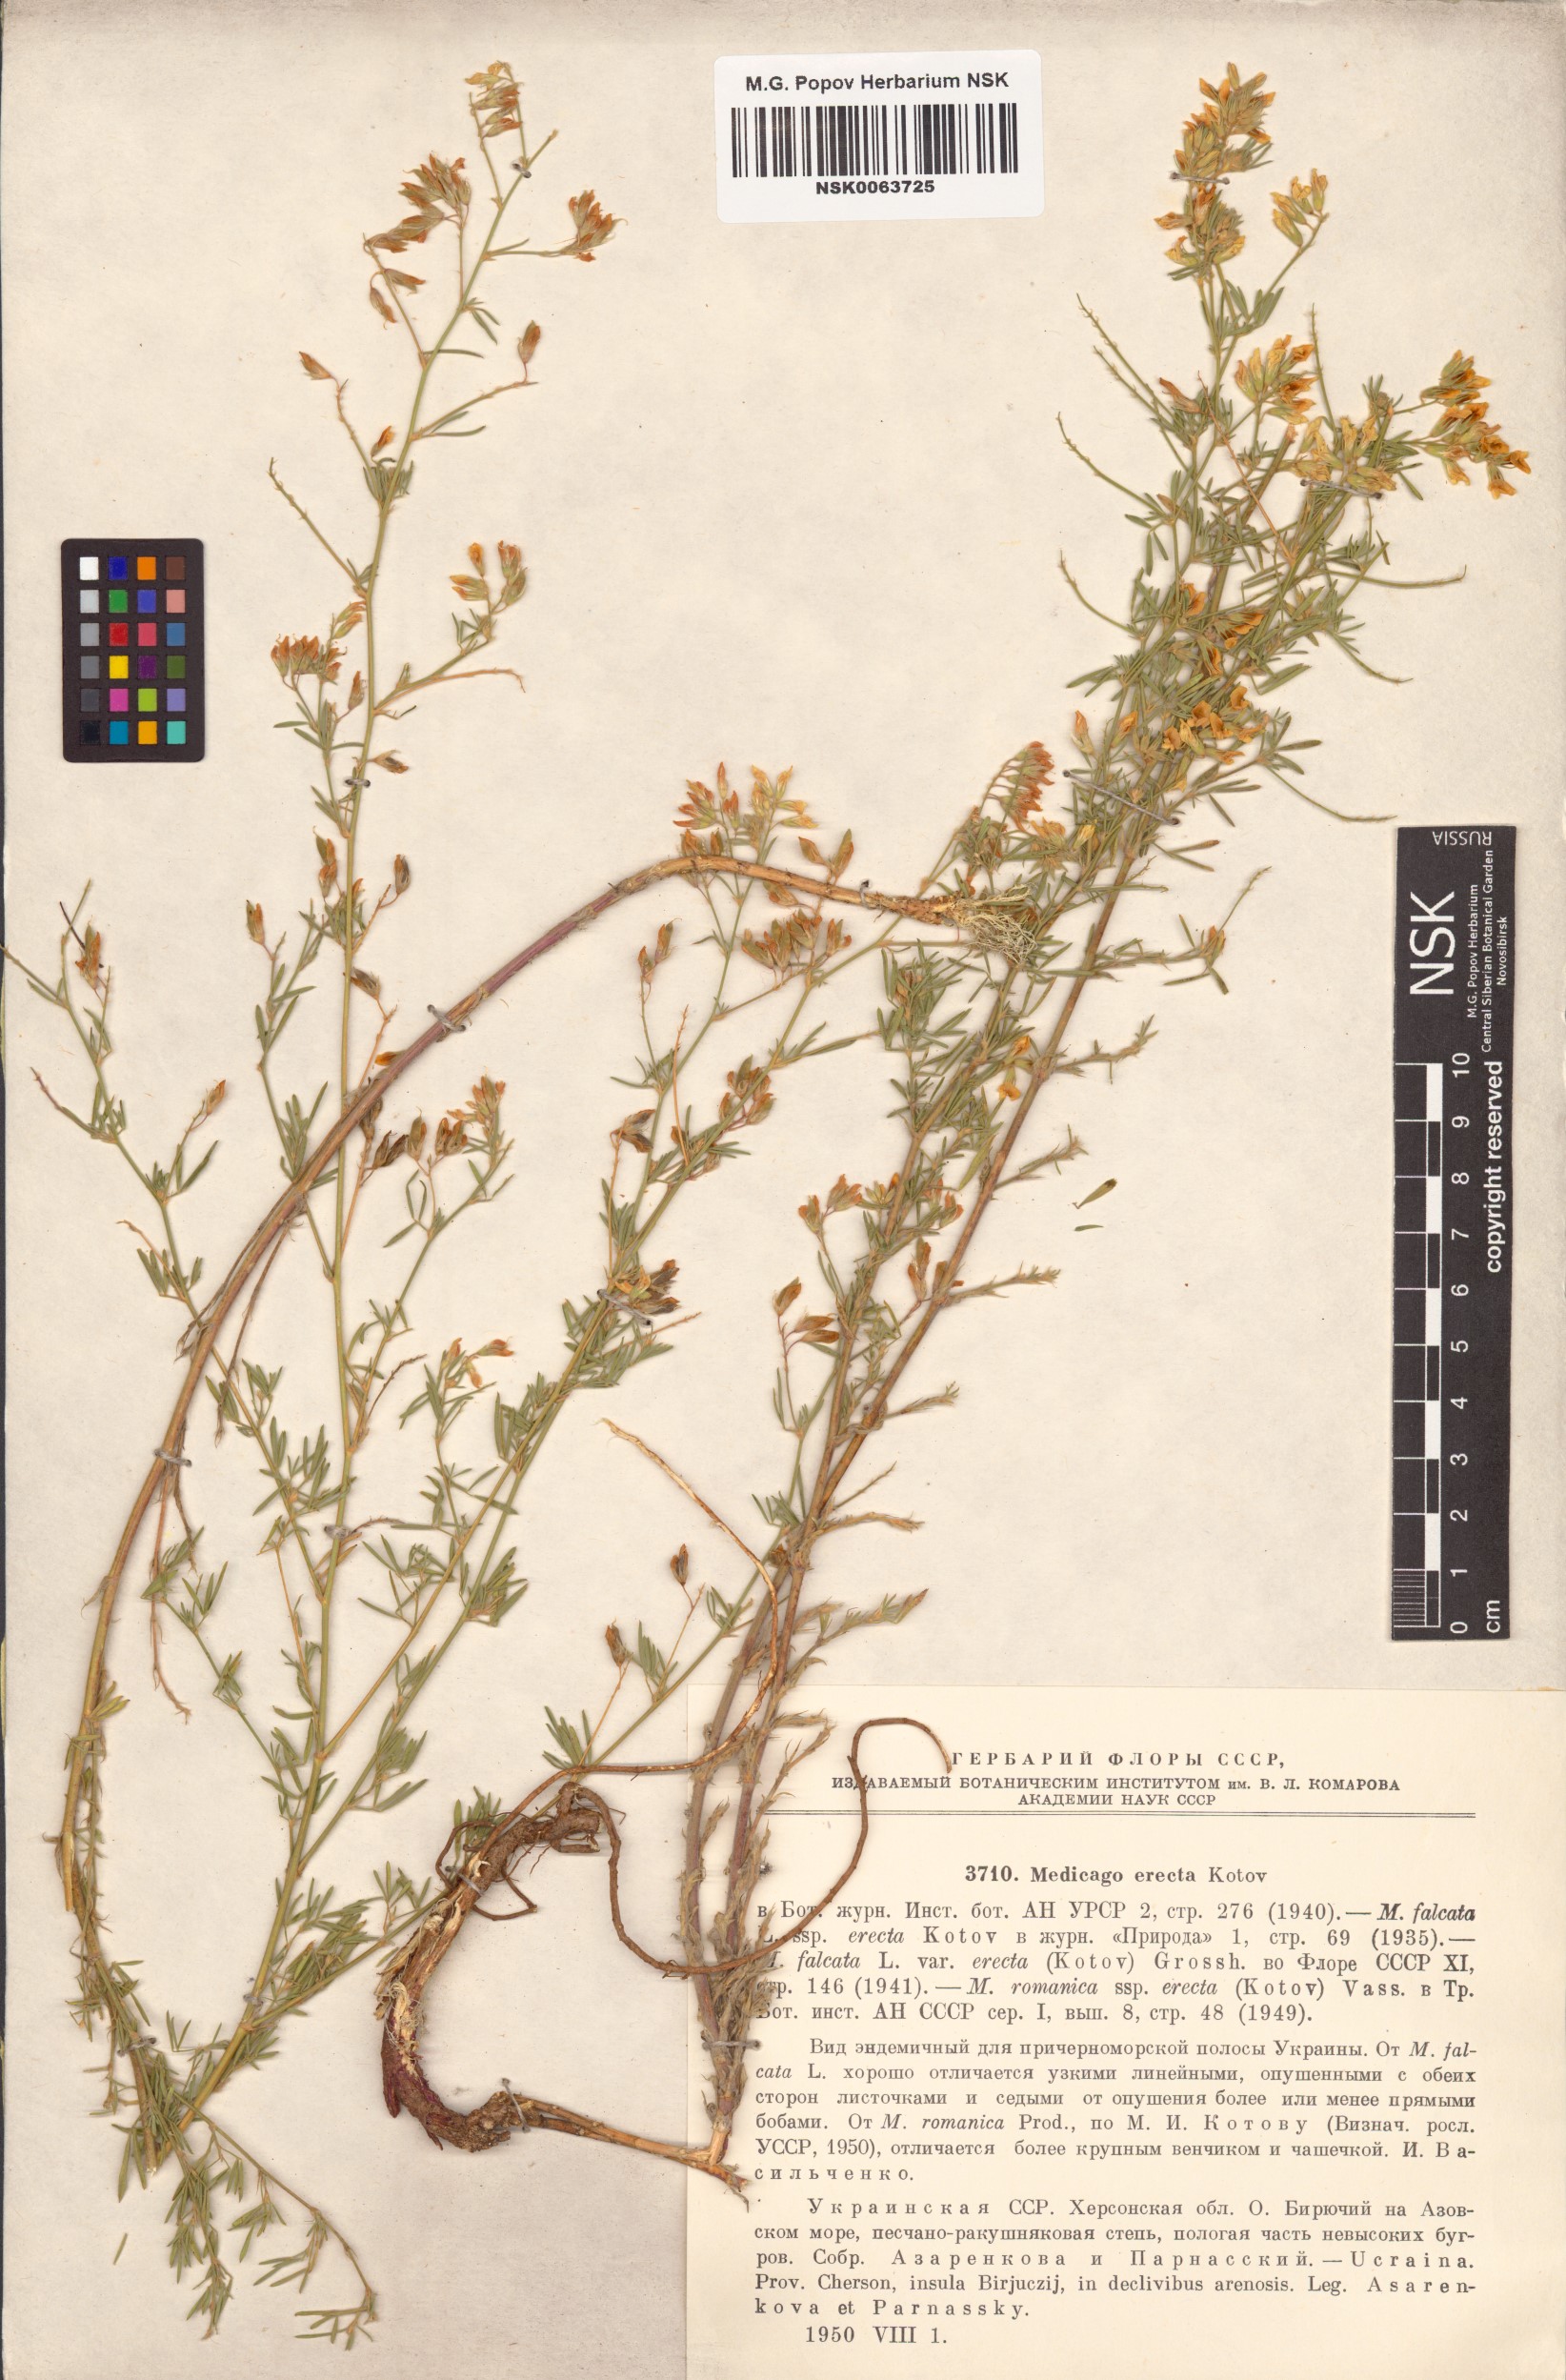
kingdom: Plantae
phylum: Tracheophyta
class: Magnoliopsida
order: Fabales
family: Fabaceae
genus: Medicago
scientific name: Medicago falcata
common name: Sickle medick
